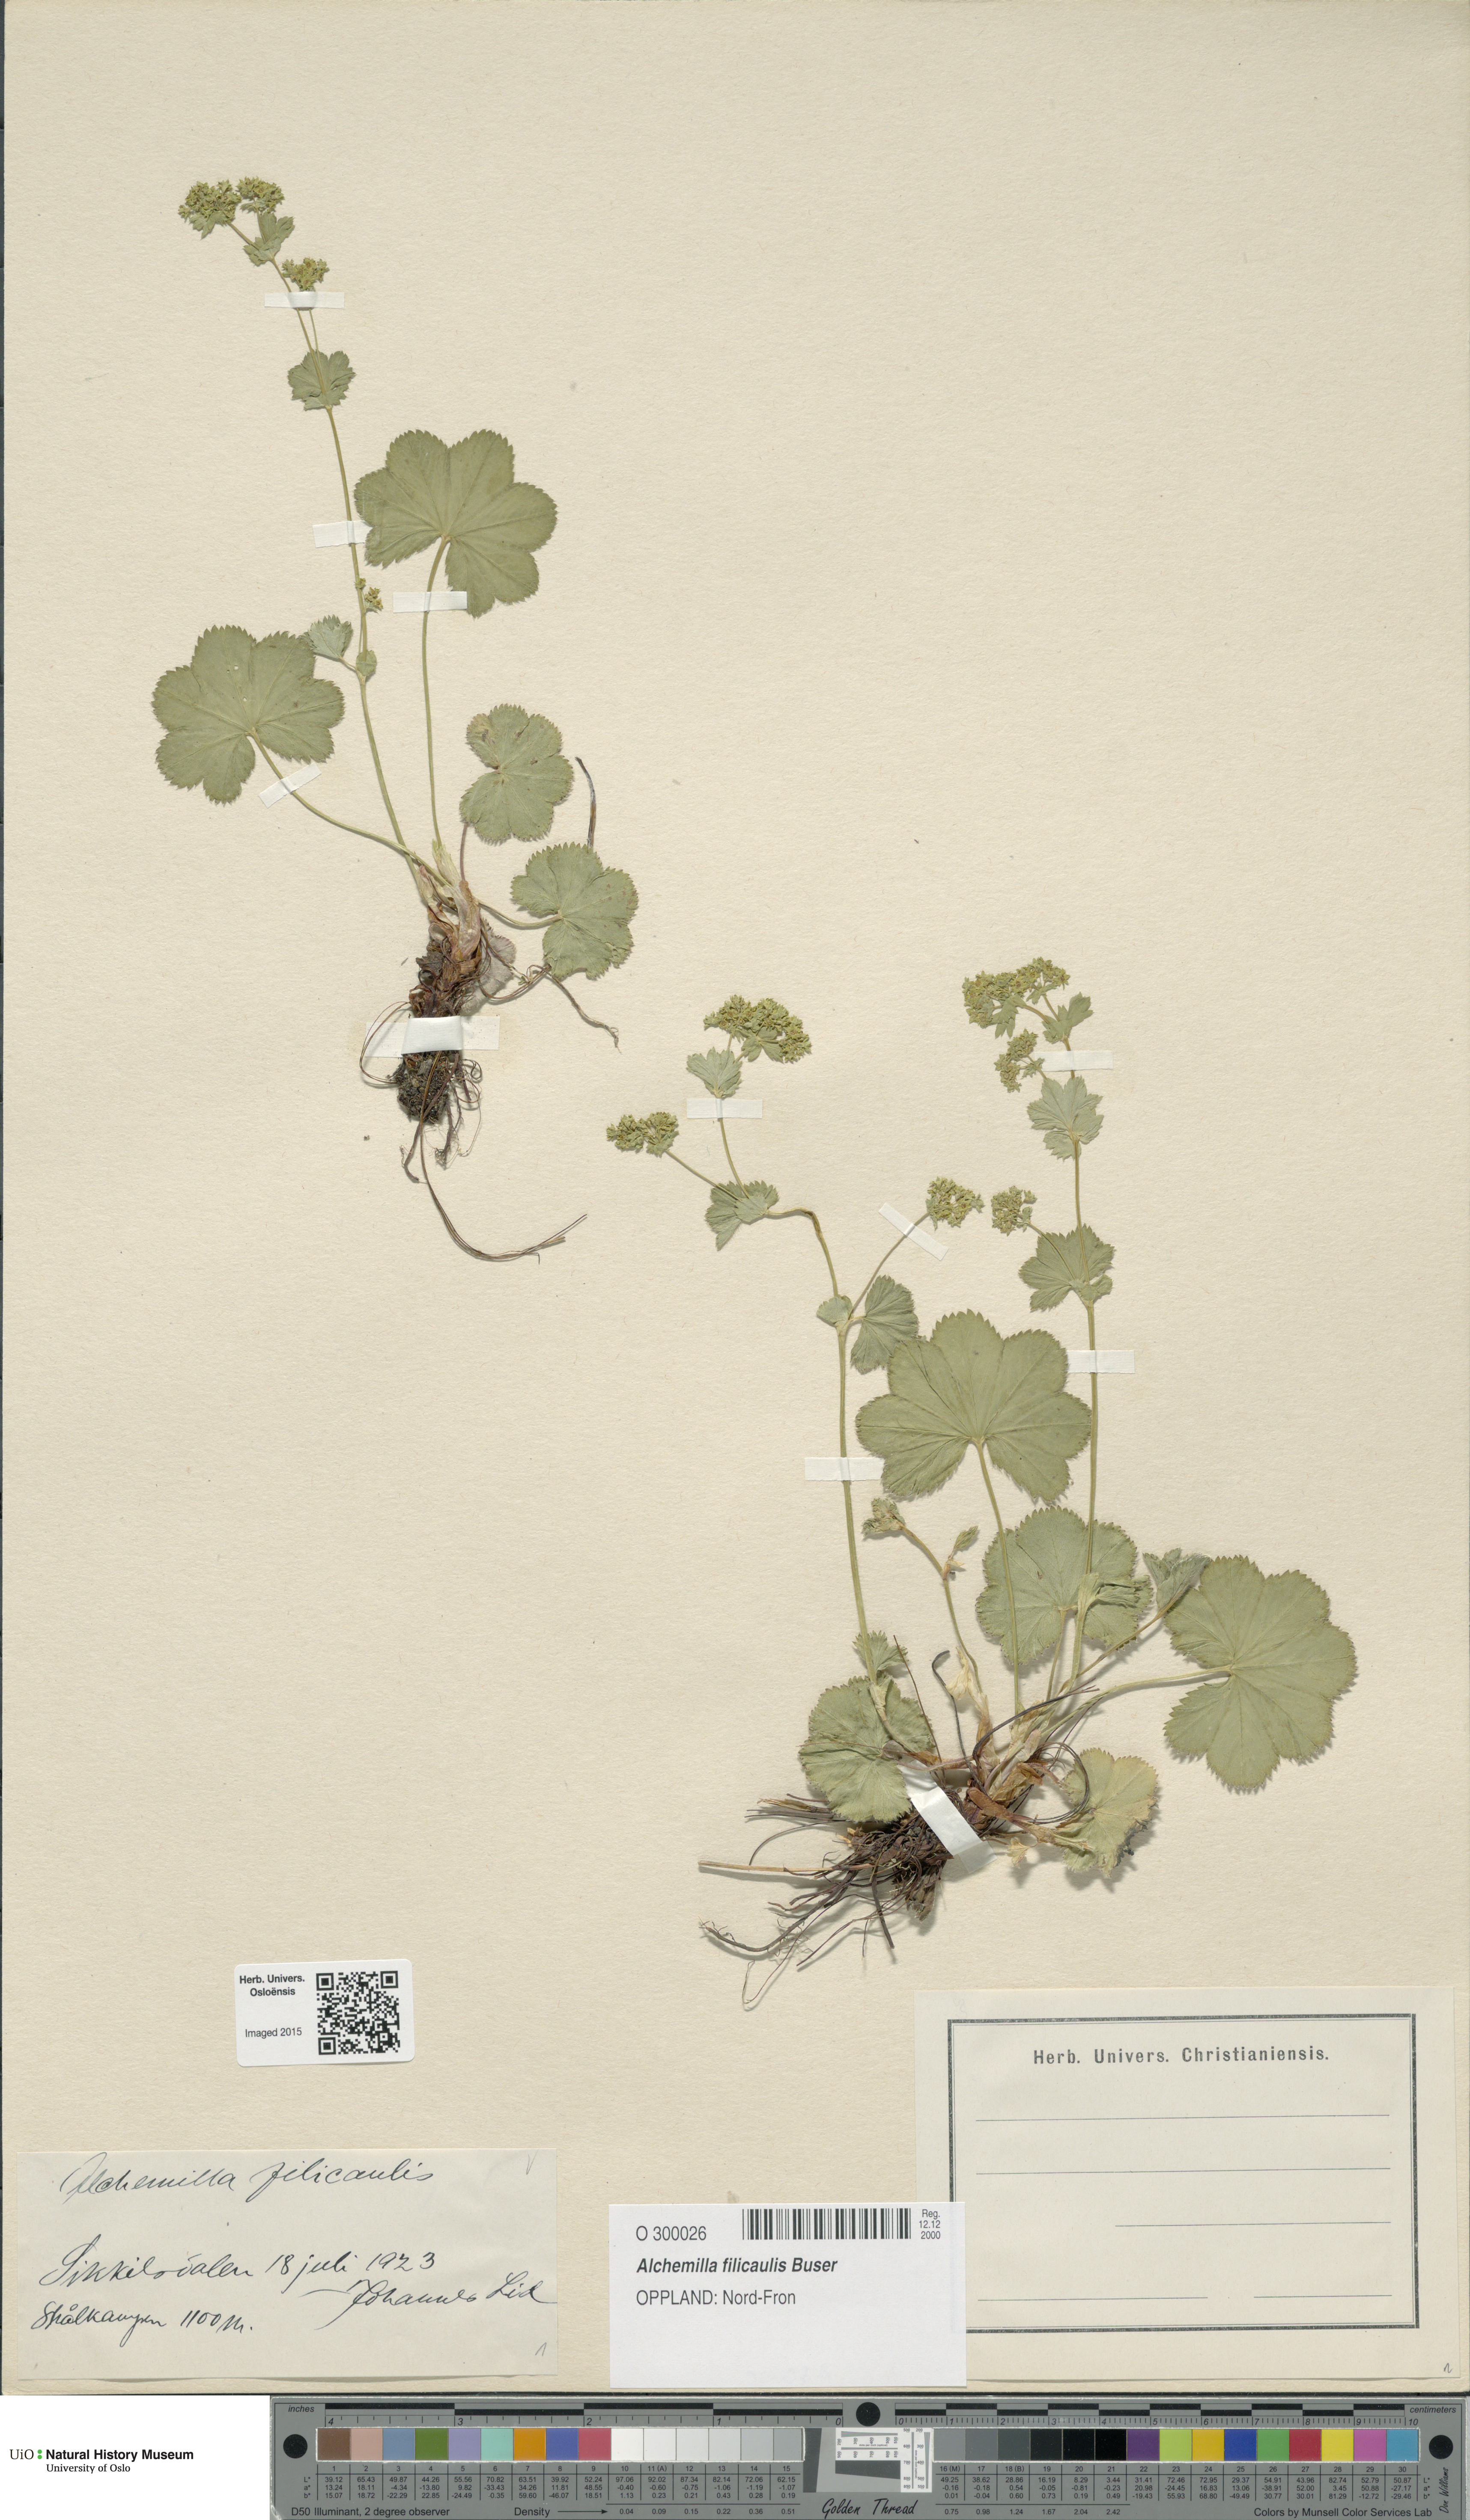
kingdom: Plantae
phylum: Tracheophyta
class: Magnoliopsida
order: Rosales
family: Rosaceae
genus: Alchemilla
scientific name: Alchemilla filicaulis
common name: Hairy lady's-mantle
